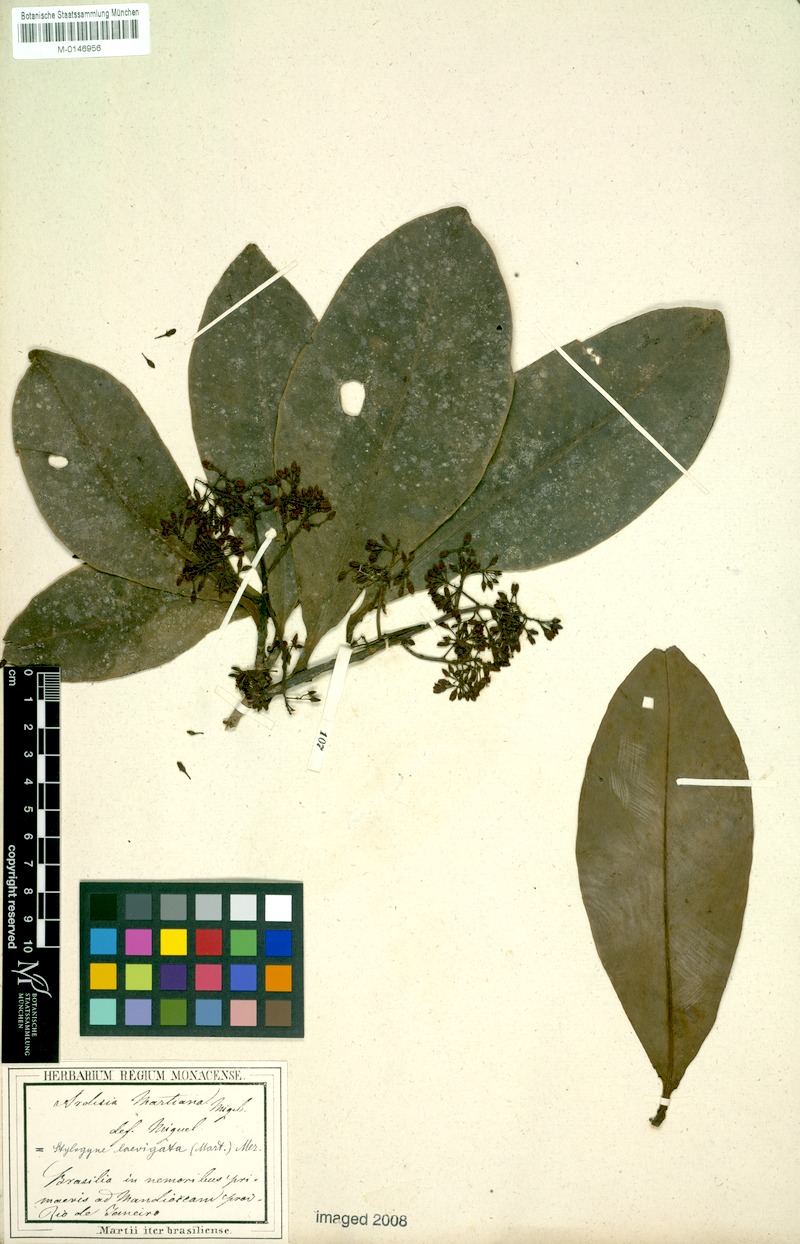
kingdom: Plantae
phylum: Tracheophyta
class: Magnoliopsida
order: Ericales
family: Primulaceae
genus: Stylogyne
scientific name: Stylogyne lhotzkyana
